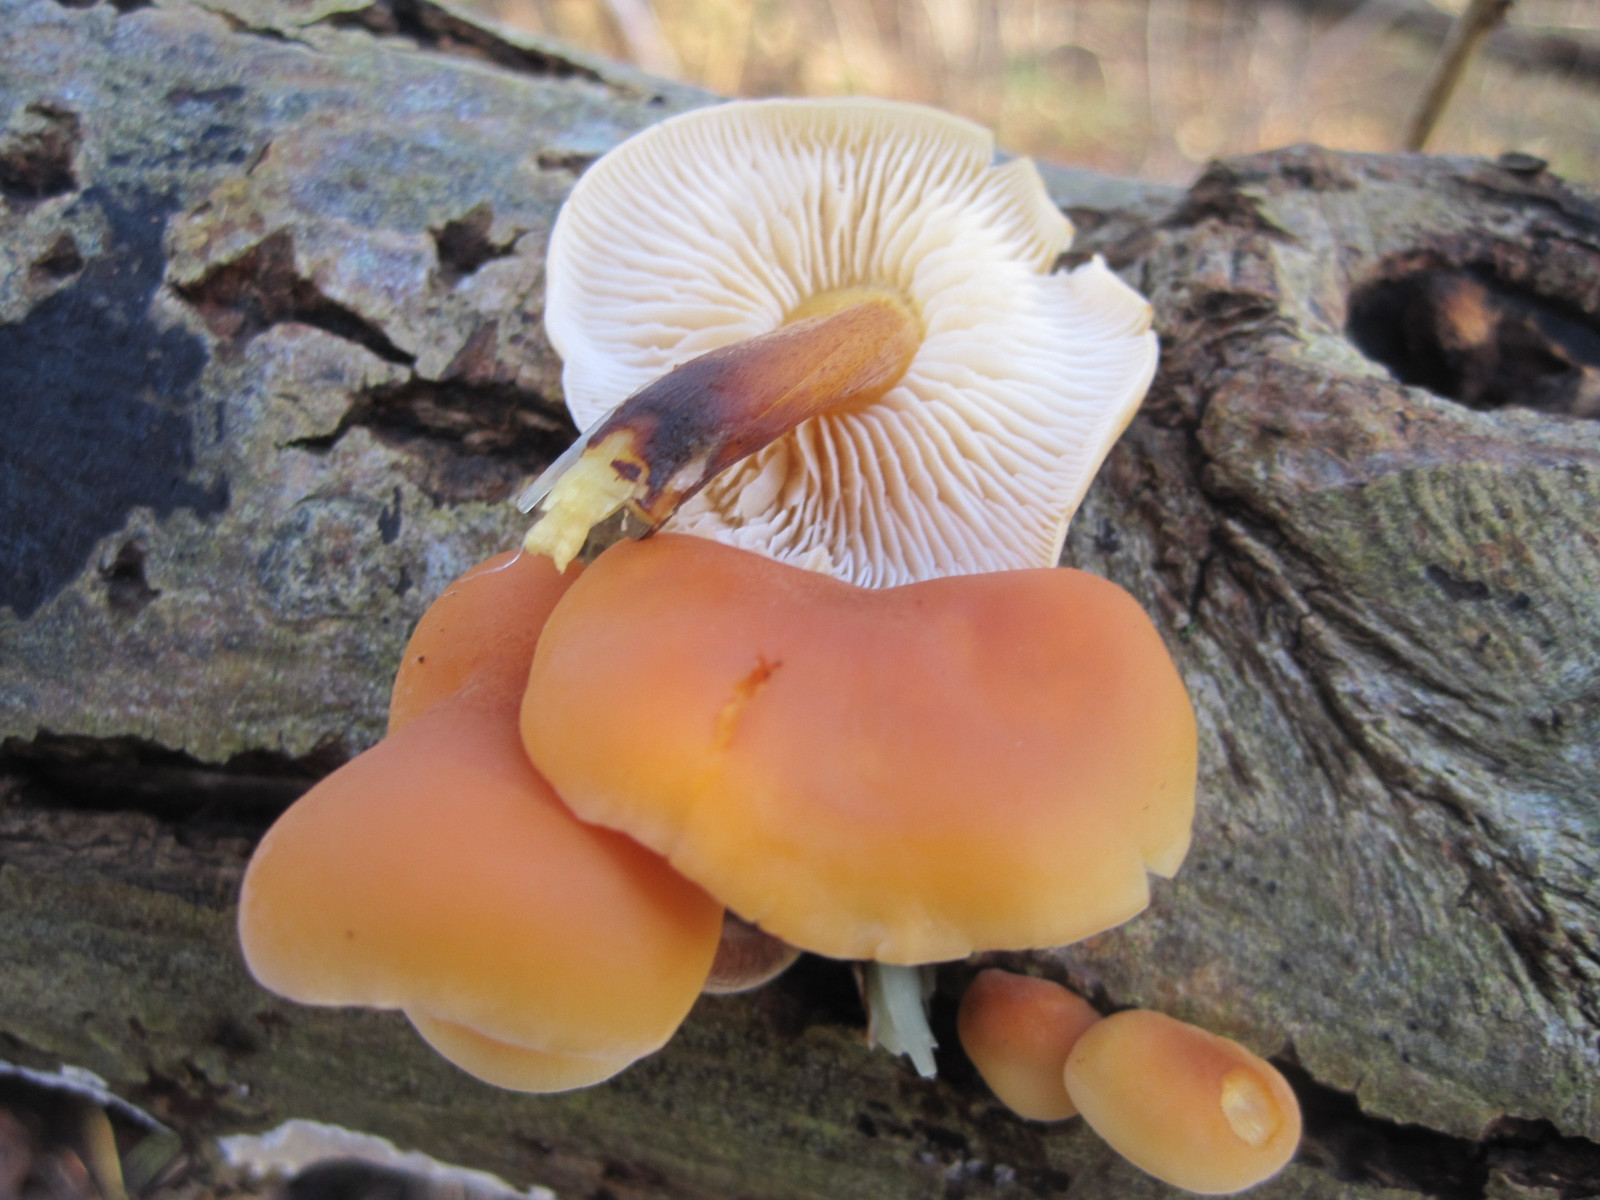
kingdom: Fungi
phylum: Basidiomycota
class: Agaricomycetes
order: Agaricales
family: Physalacriaceae
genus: Flammulina
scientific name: Flammulina velutipes
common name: gul fløjlsfod
